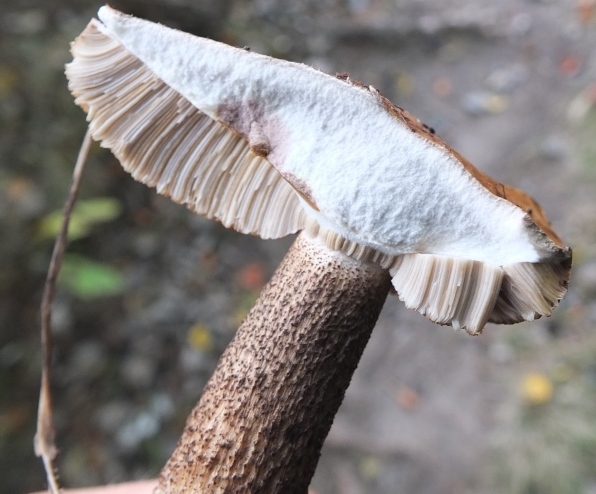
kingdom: Fungi
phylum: Basidiomycota
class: Agaricomycetes
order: Boletales
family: Boletaceae
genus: Leccinum
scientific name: Leccinum duriusculum
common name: poppel-skælrørhat
